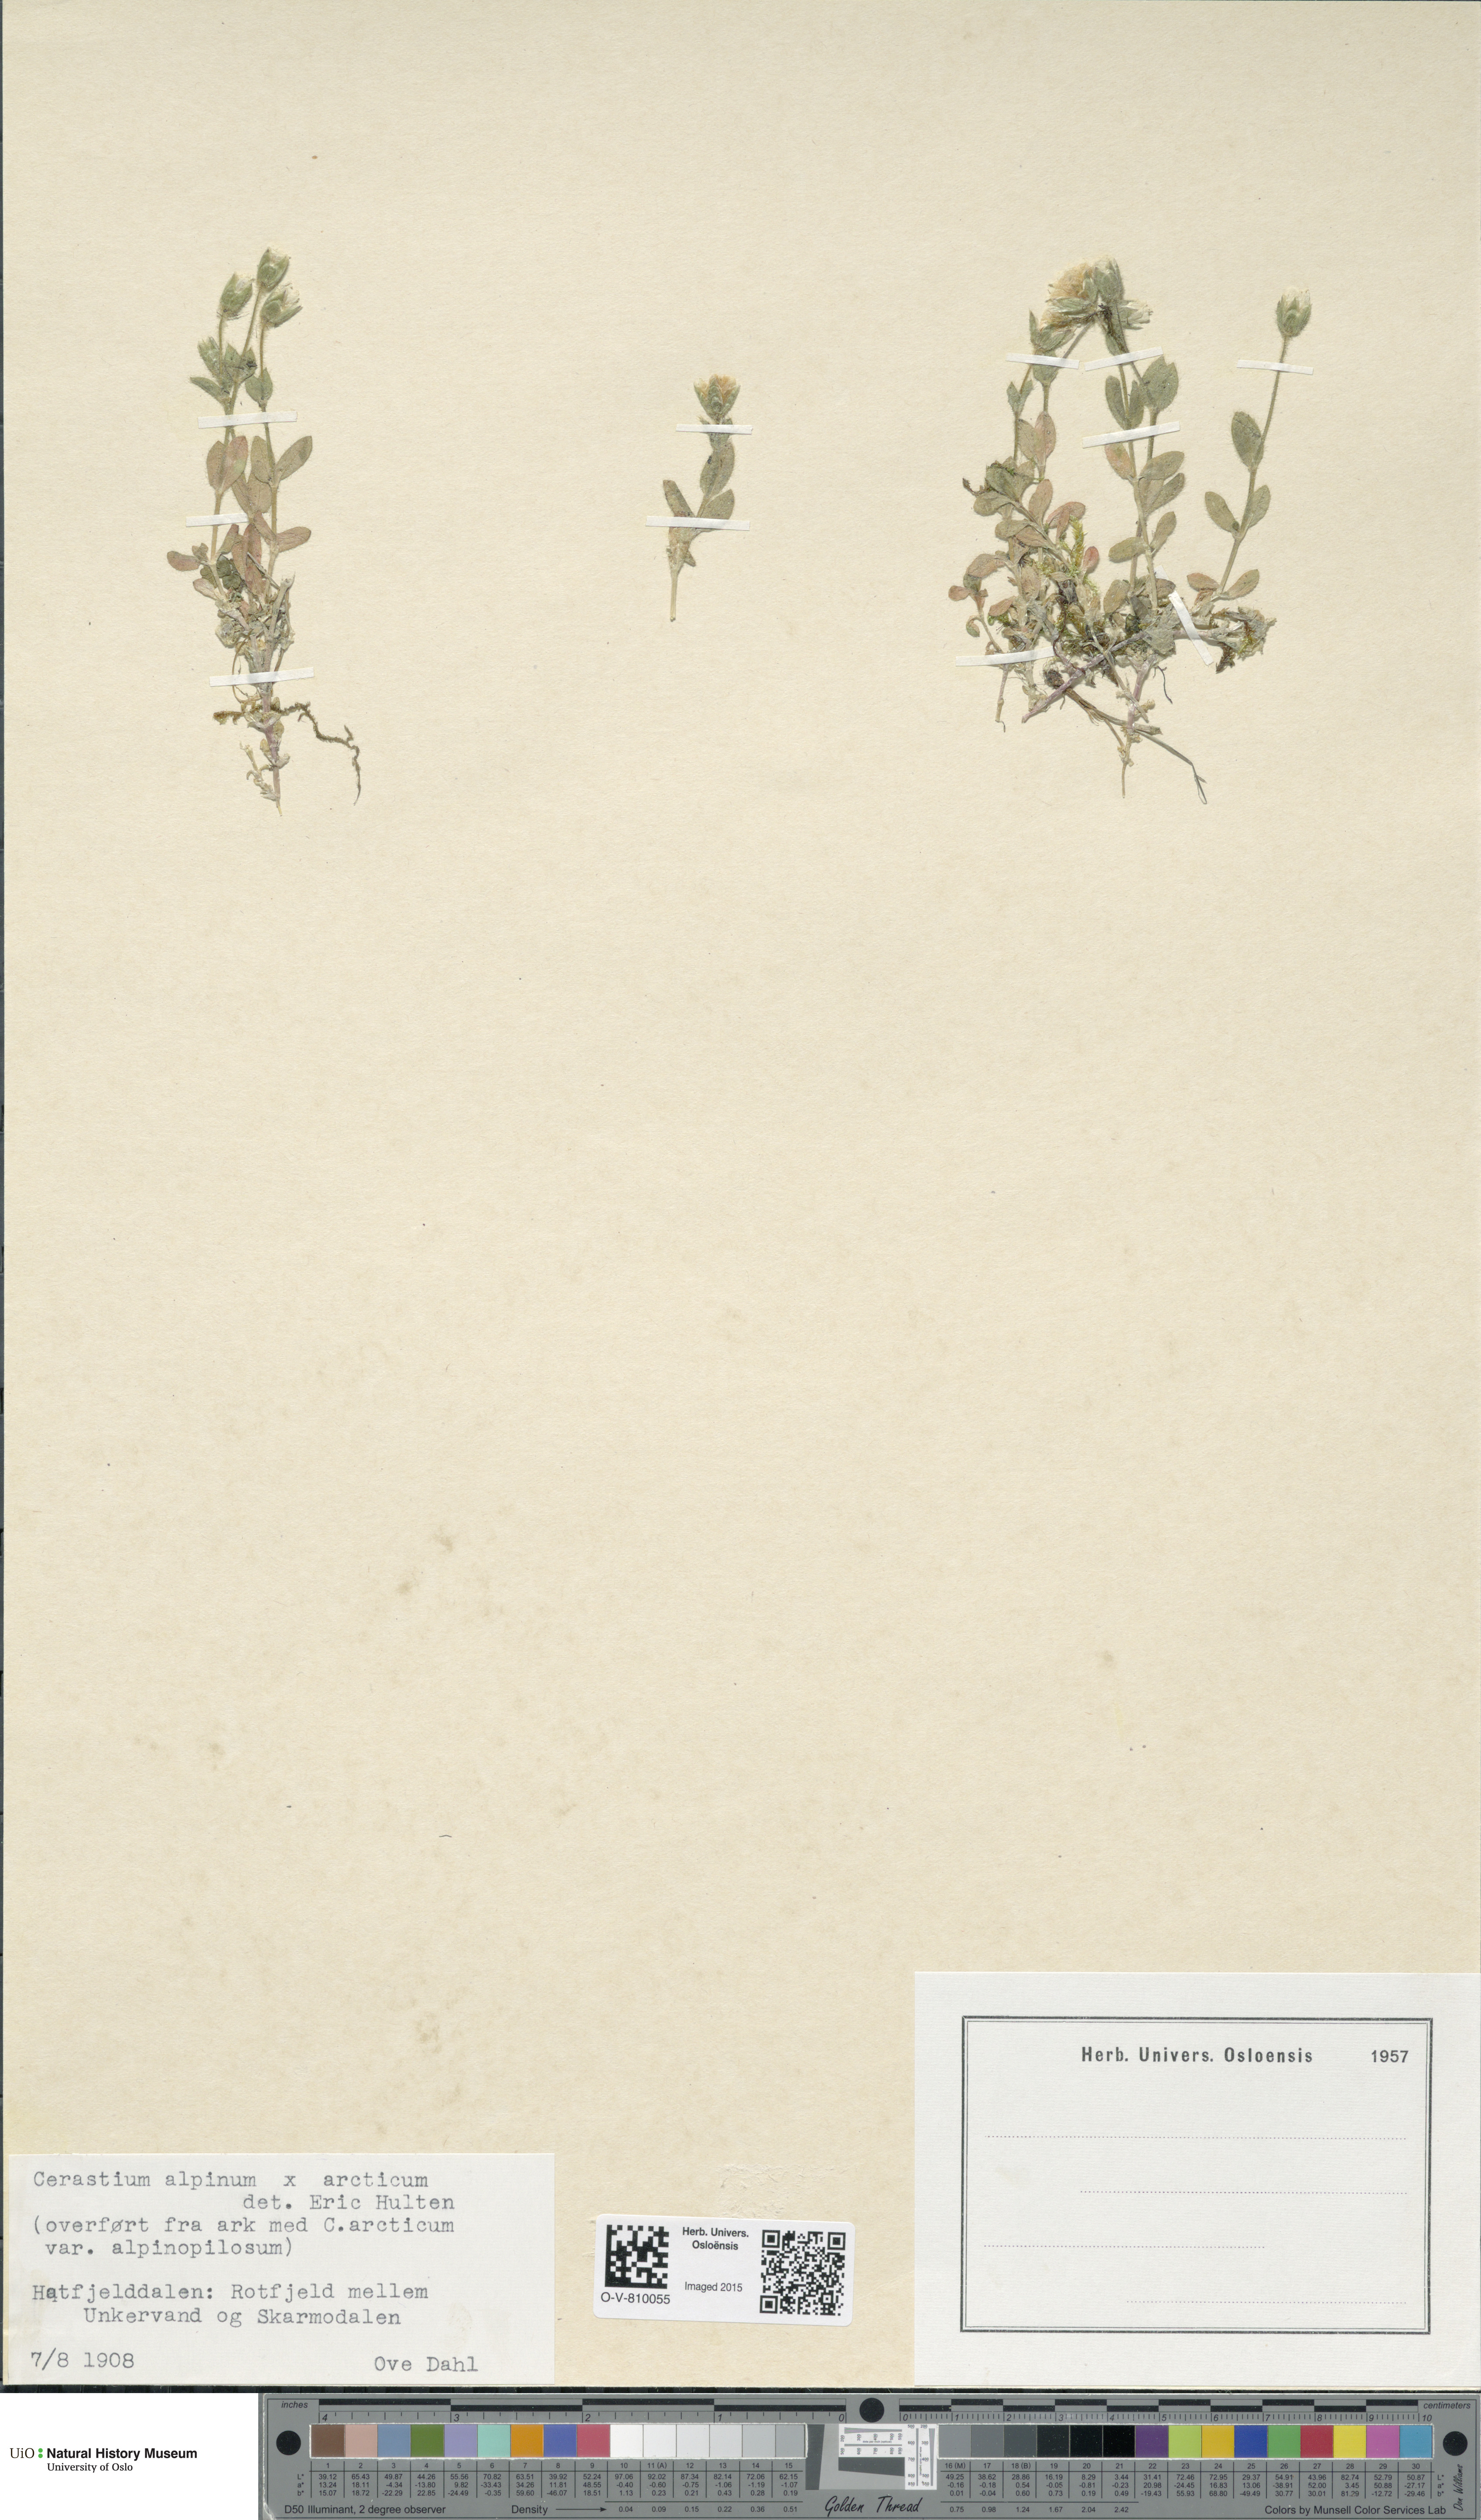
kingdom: Plantae
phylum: Tracheophyta
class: Magnoliopsida
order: Caryophyllales
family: Caryophyllaceae
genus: Cerastium
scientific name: Cerastium
